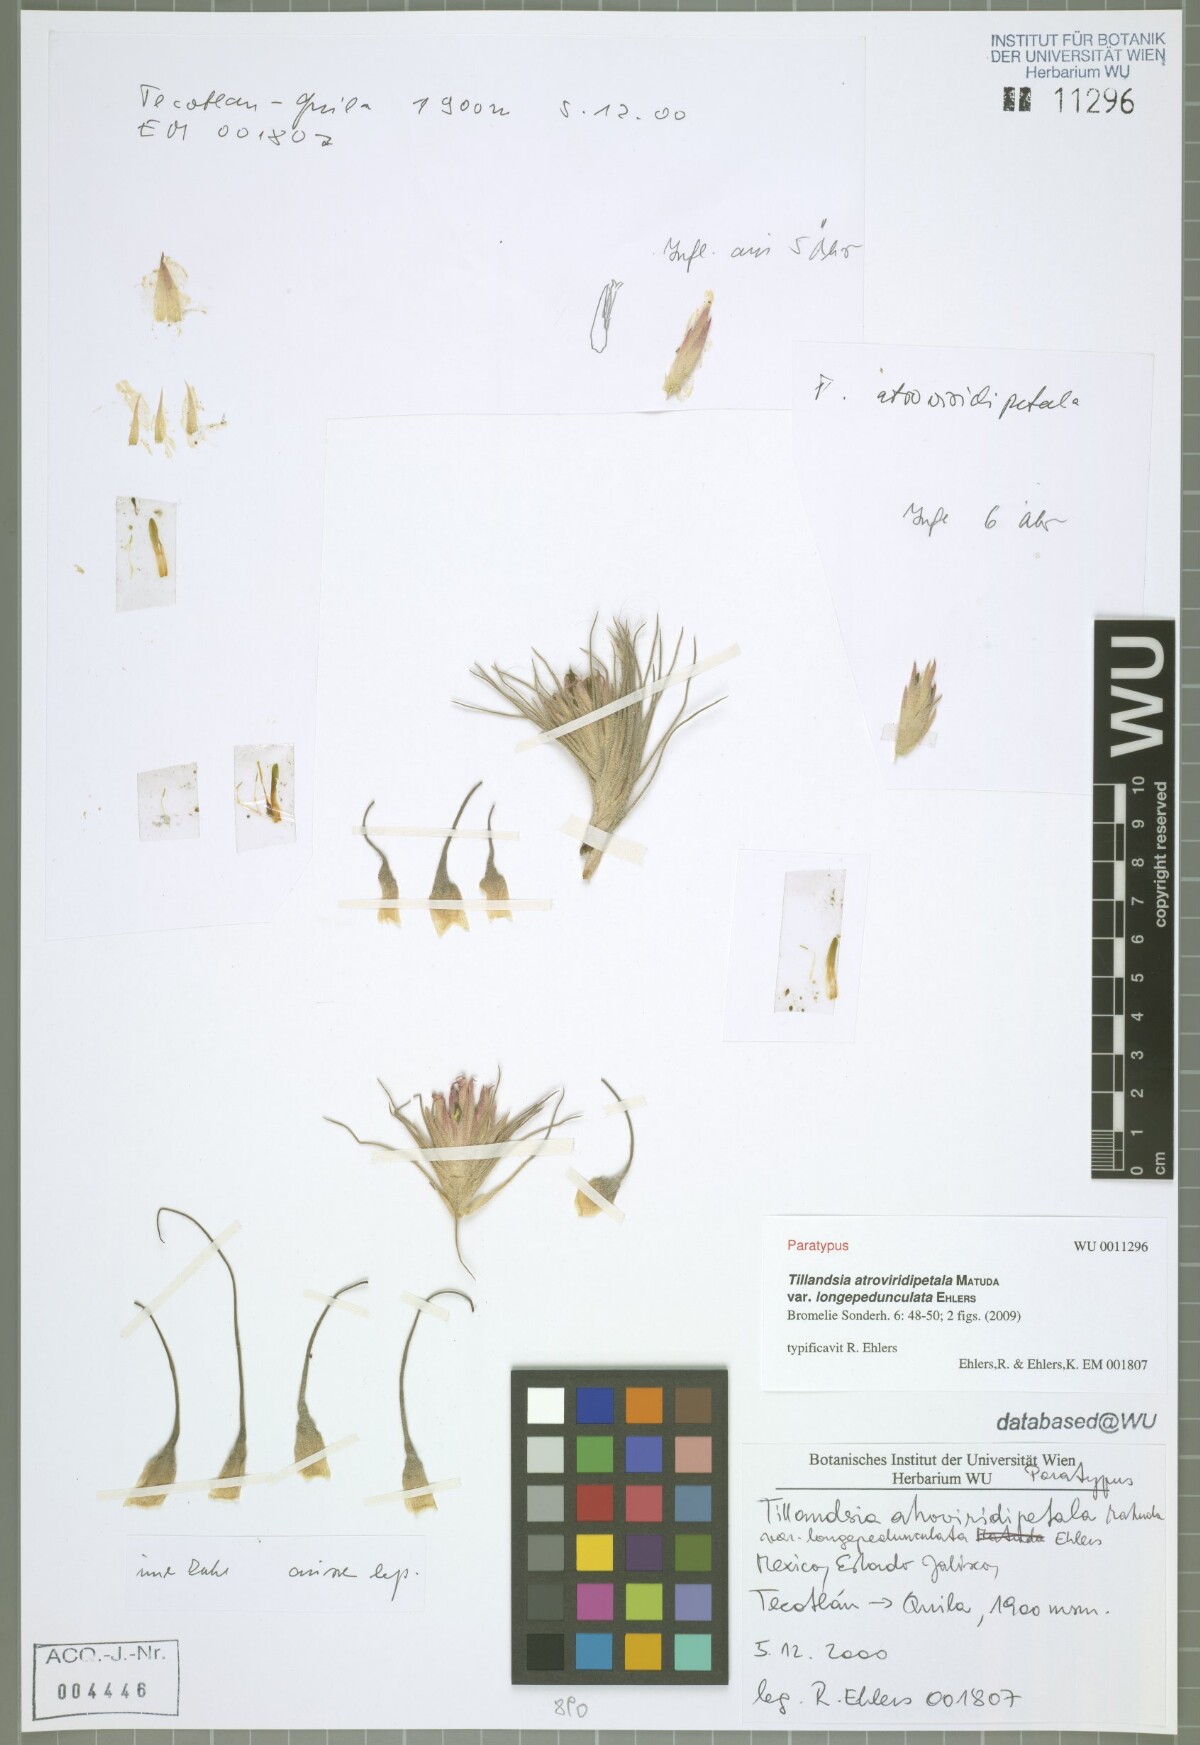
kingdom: Plantae
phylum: Tracheophyta
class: Liliopsida
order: Poales
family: Bromeliaceae
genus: Tillandsia
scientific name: Tillandsia atroviridipetala
